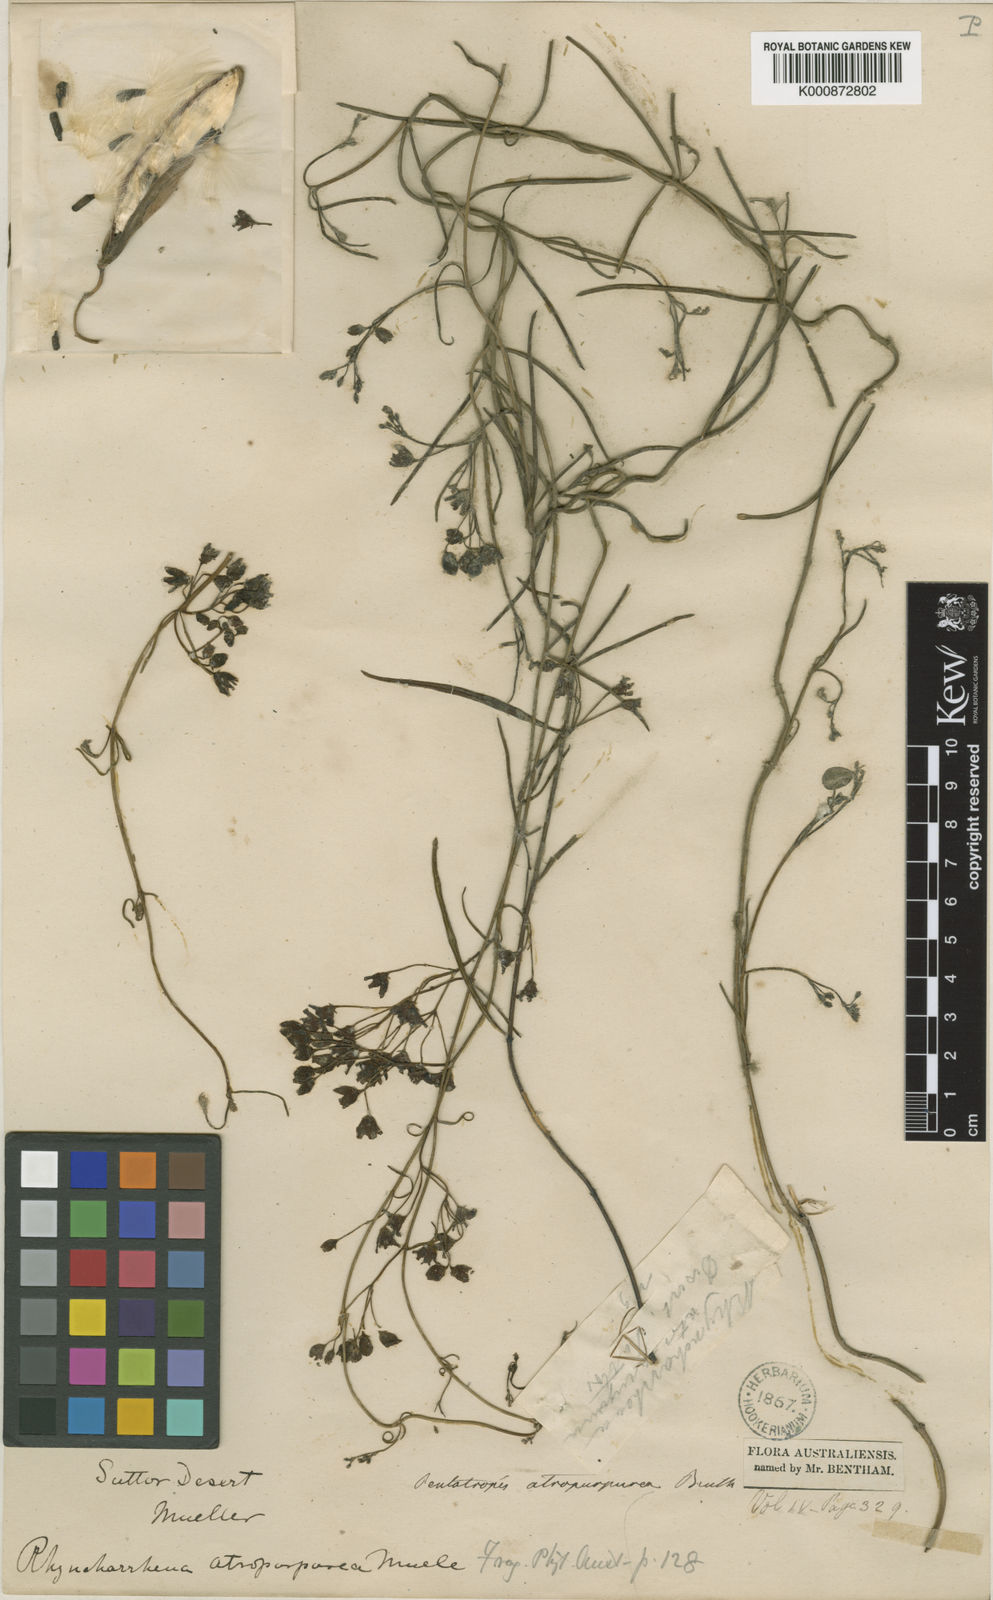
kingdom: Plantae
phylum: Tracheophyta
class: Magnoliopsida
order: Gentianales
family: Apocynaceae
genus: Vincetoxicum
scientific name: Vincetoxicum lineare
